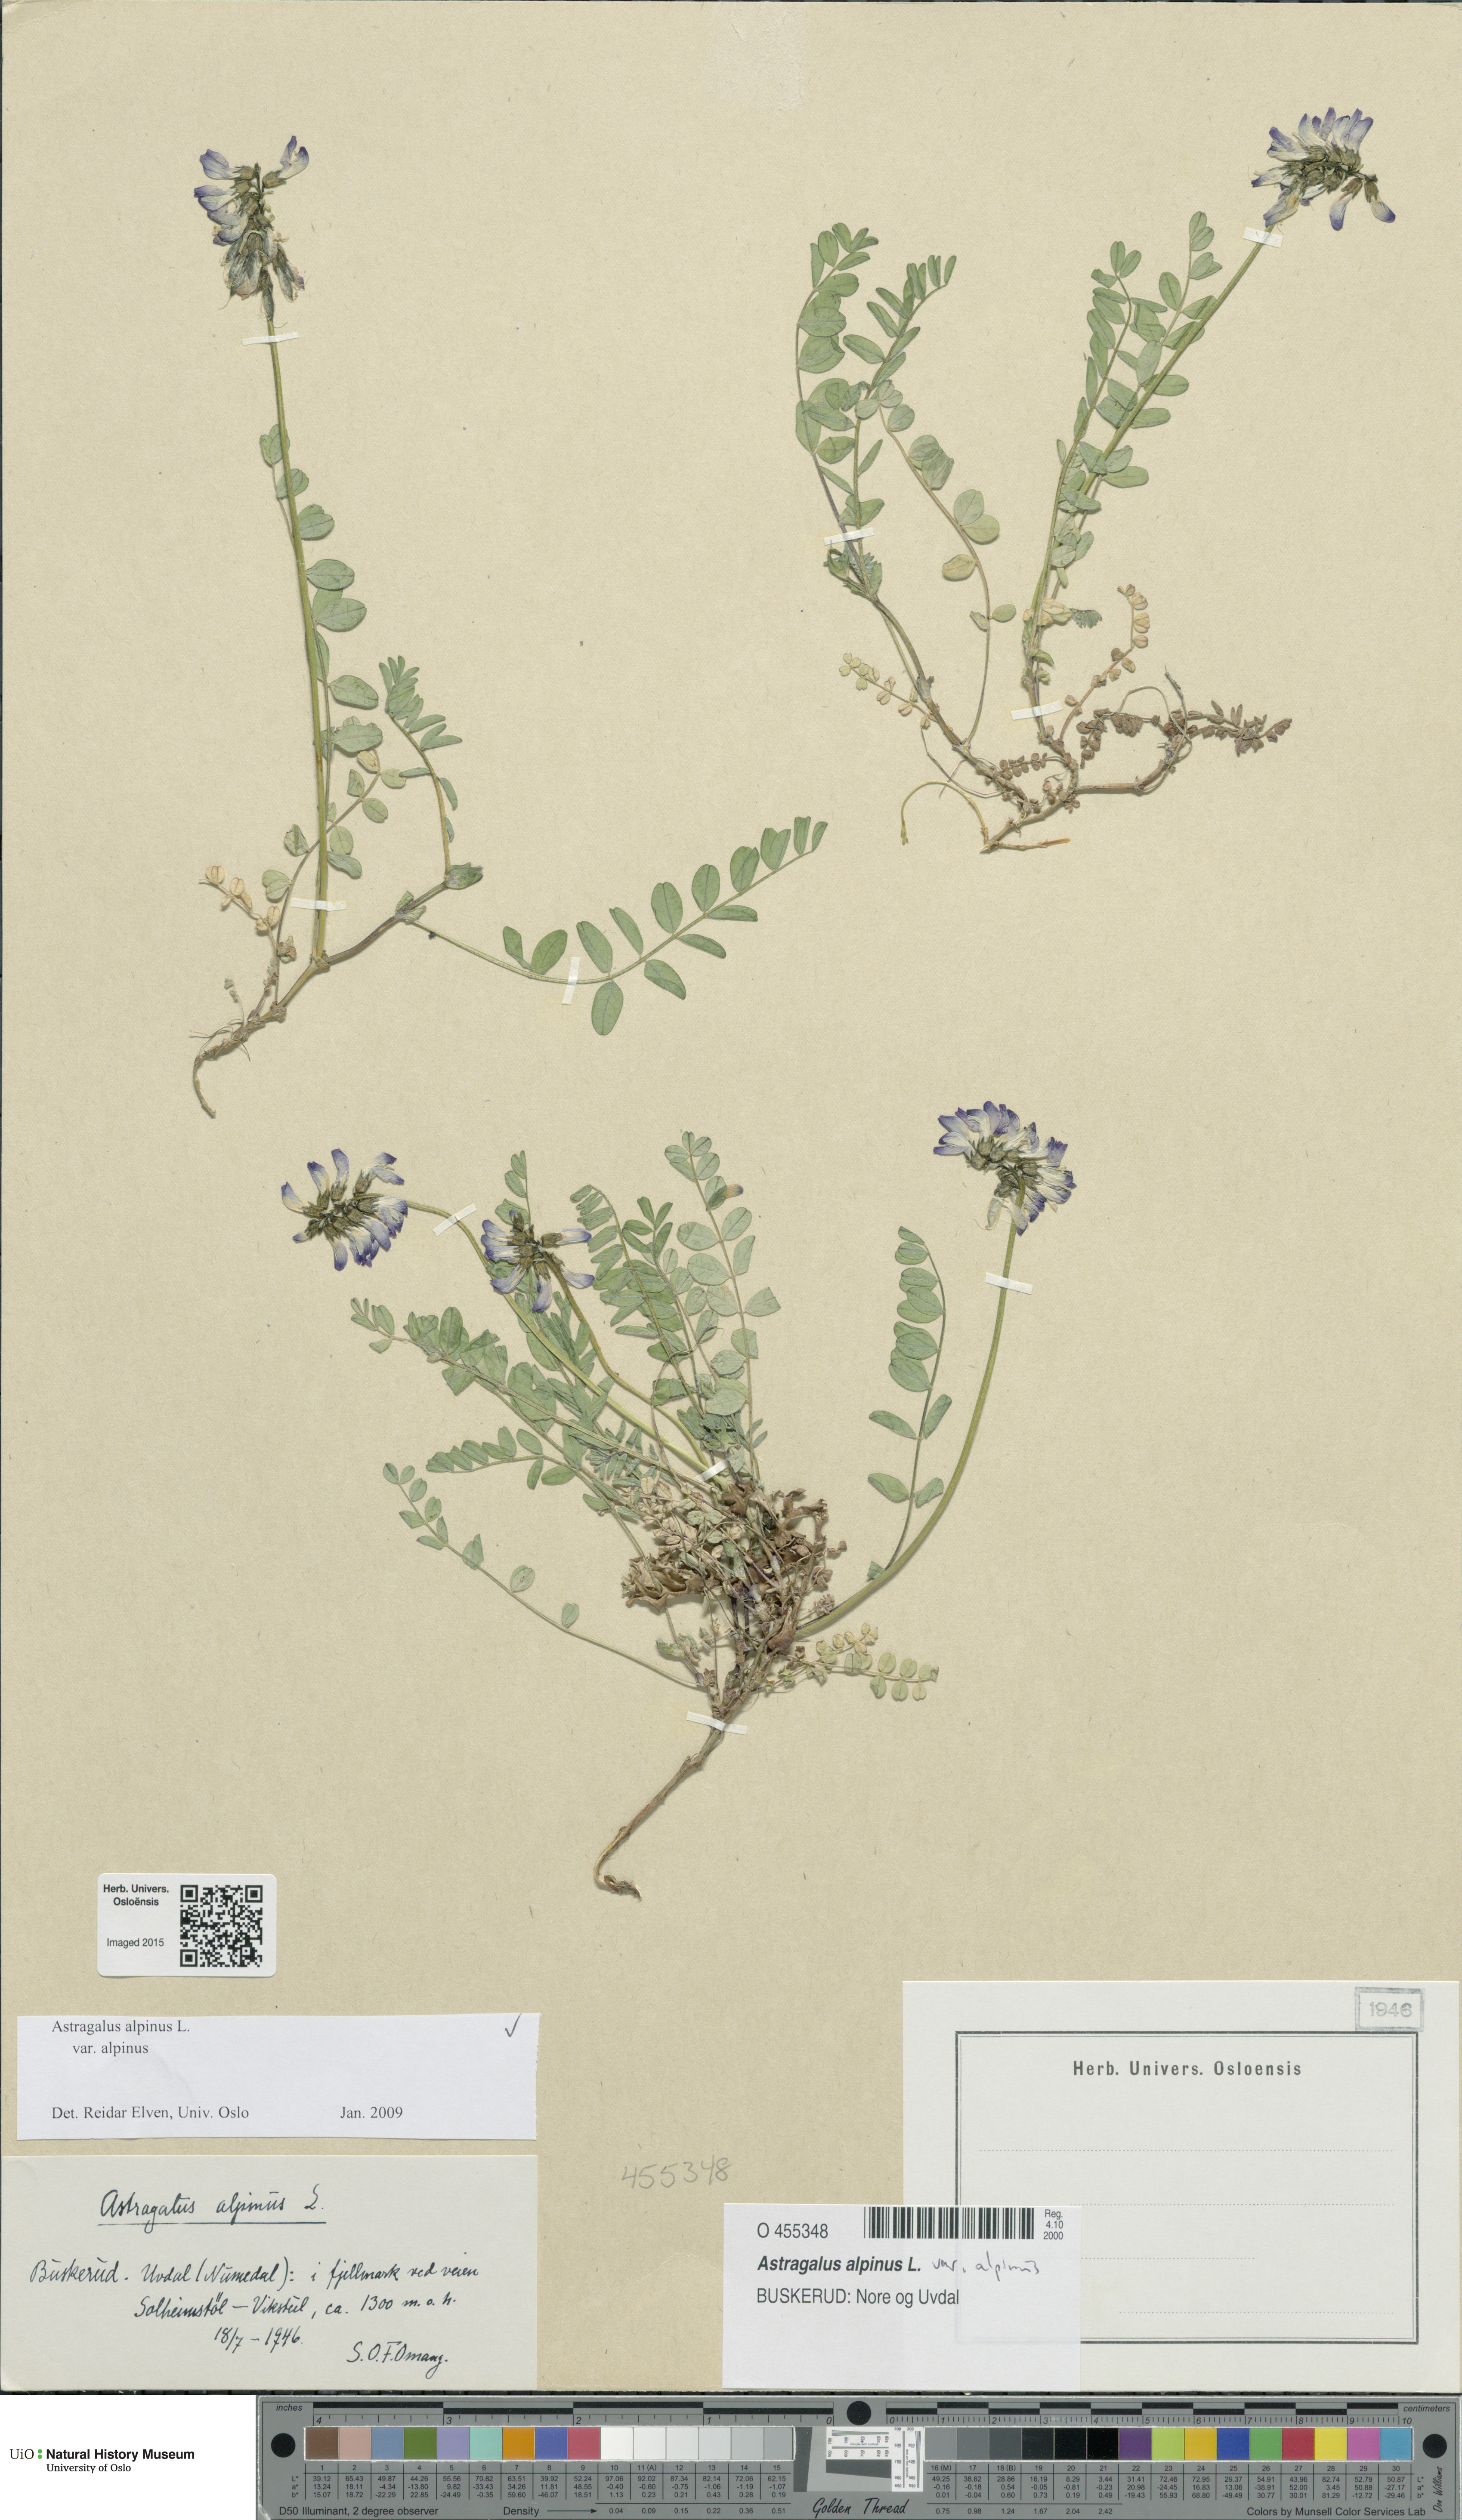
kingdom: Plantae
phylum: Tracheophyta
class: Magnoliopsida
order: Fabales
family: Fabaceae
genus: Astragalus
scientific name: Astragalus alpinus
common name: Alpine milk-vetch
